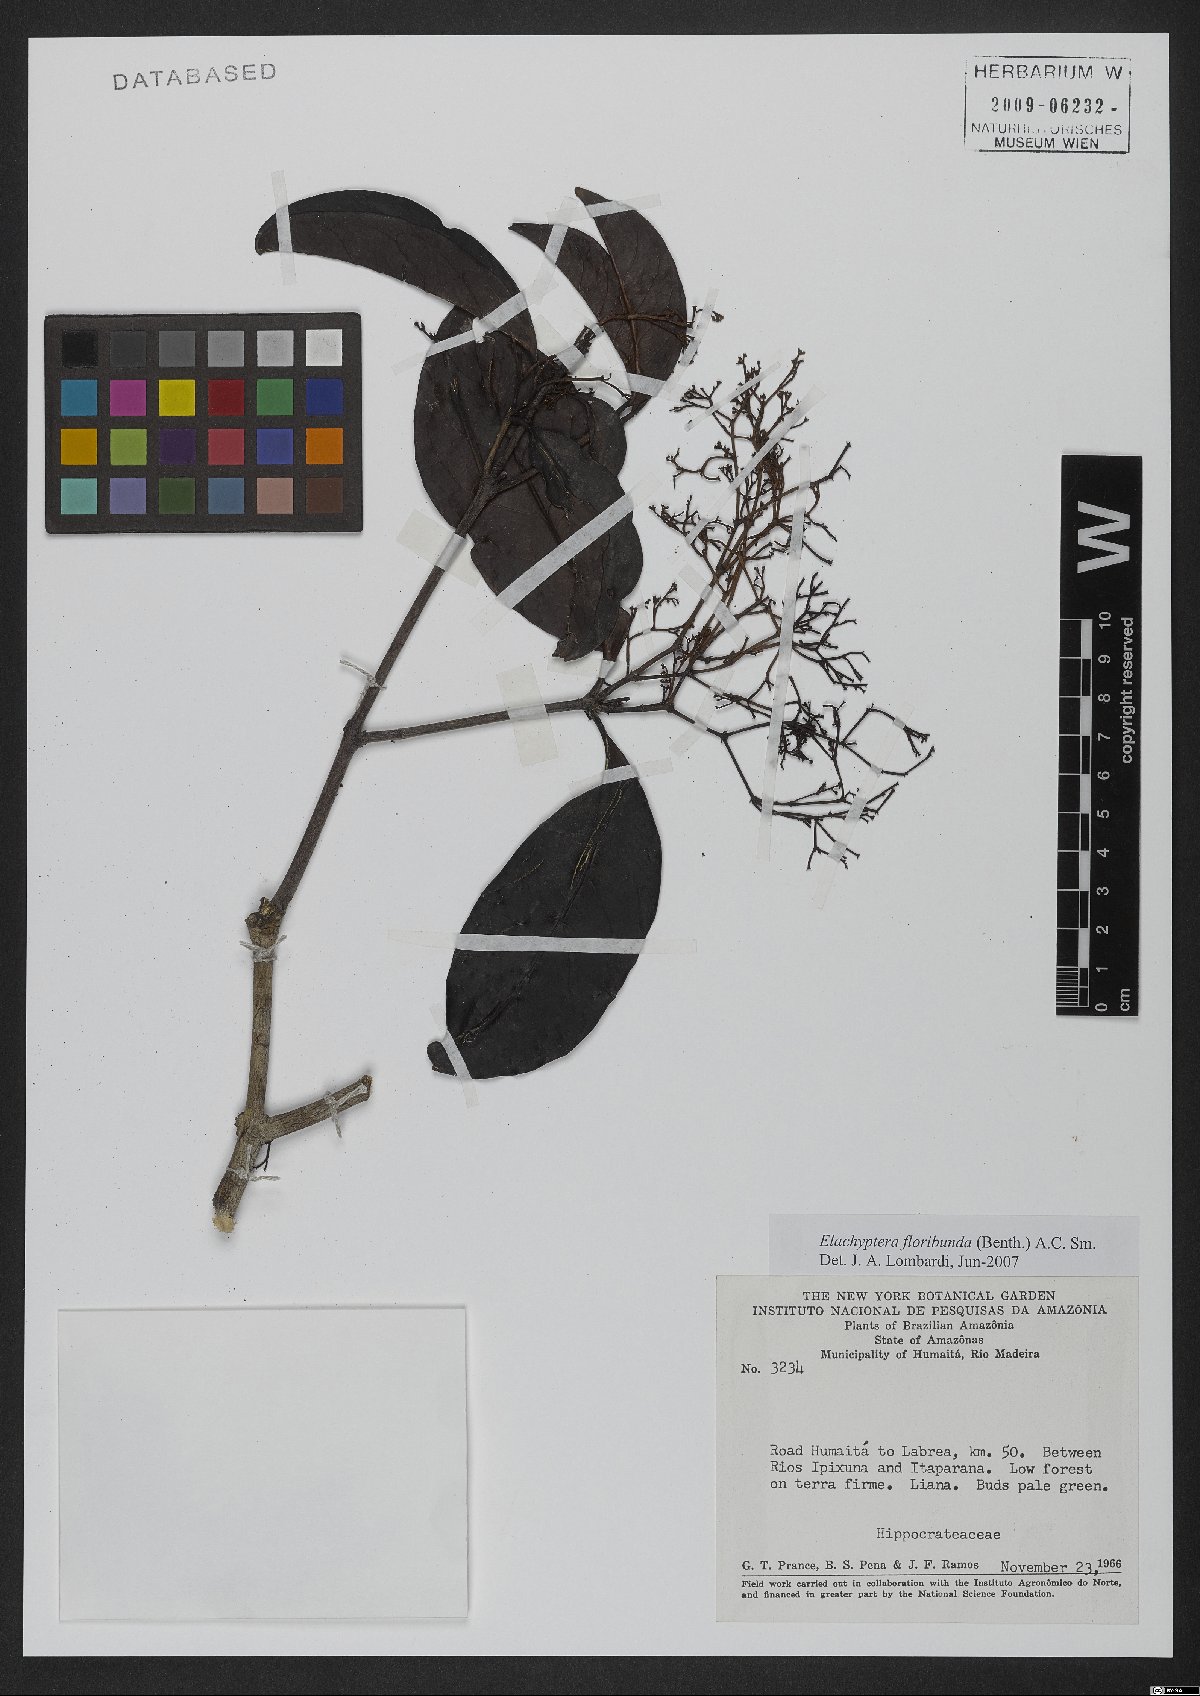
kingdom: Plantae
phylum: Tracheophyta
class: Magnoliopsida
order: Celastrales
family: Celastraceae
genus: Elachyptera
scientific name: Elachyptera floribunda
